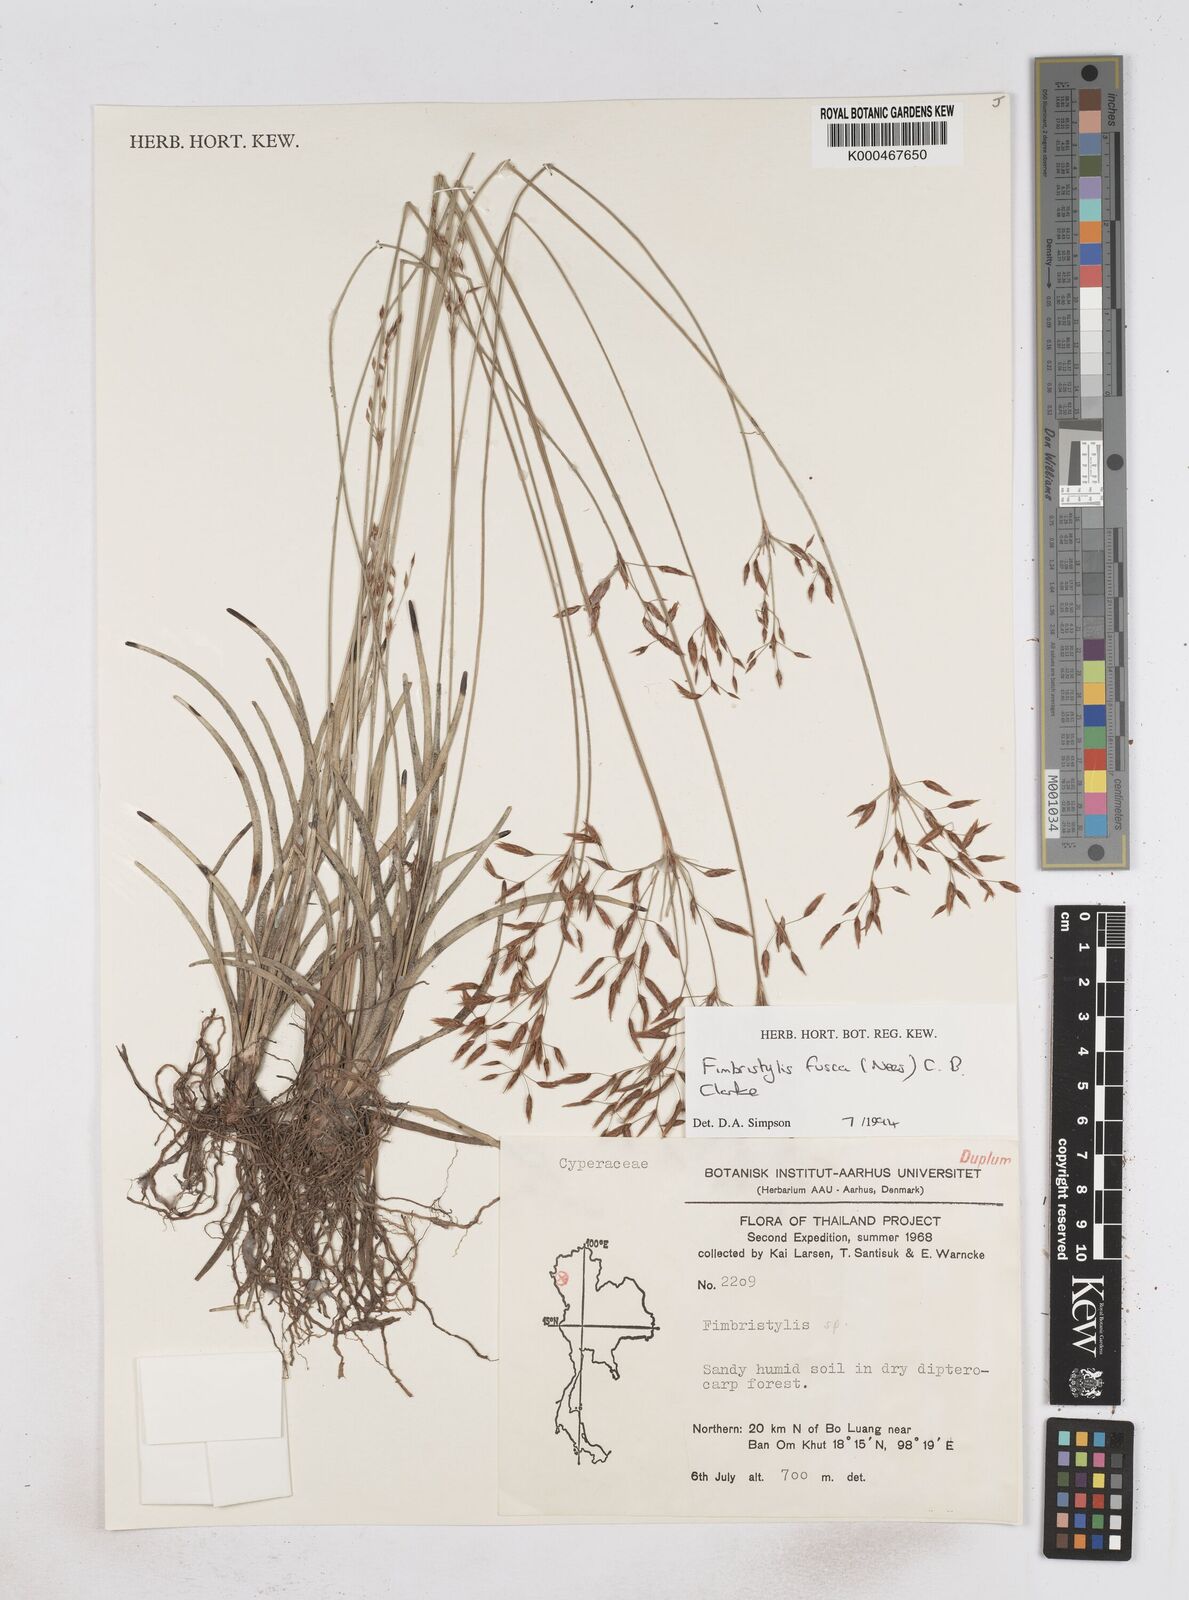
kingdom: Plantae
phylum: Tracheophyta
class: Liliopsida
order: Poales
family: Cyperaceae
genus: Fimbristylis
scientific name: Fimbristylis fusca
